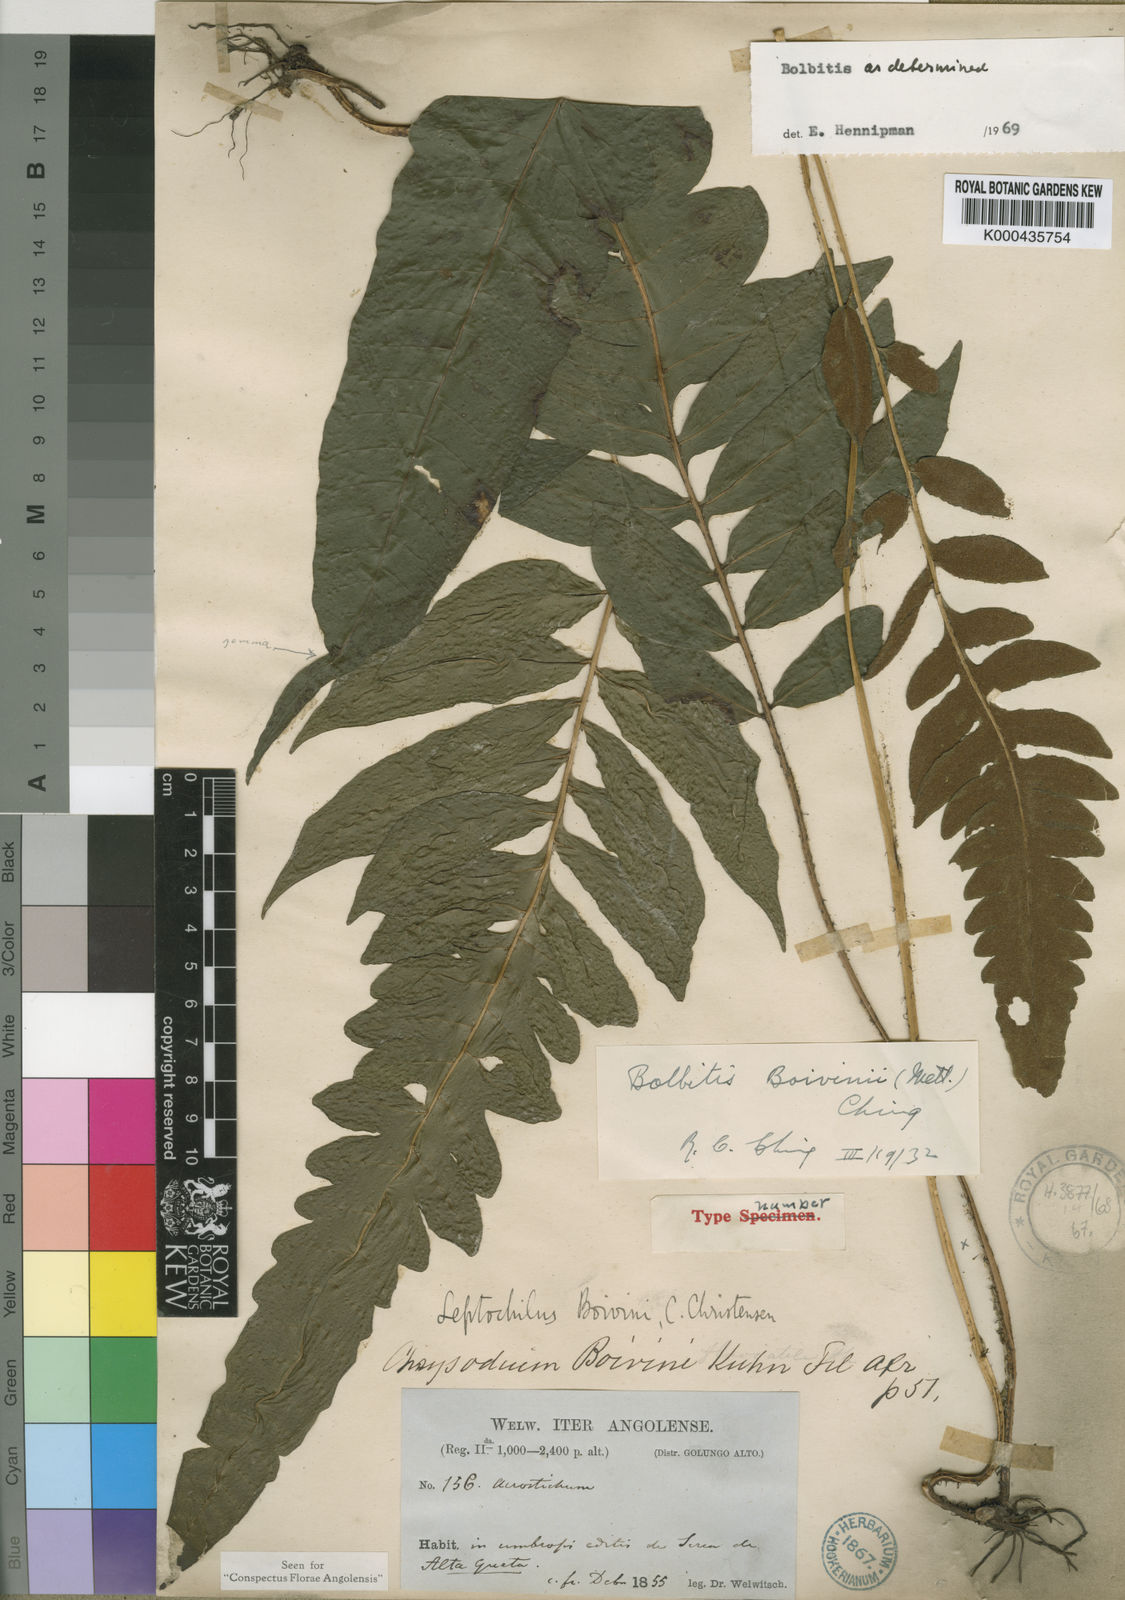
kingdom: Plantae
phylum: Tracheophyta
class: Polypodiopsida
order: Polypodiales
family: Dryopteridaceae
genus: Bolbitis
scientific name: Bolbitis boivinii
